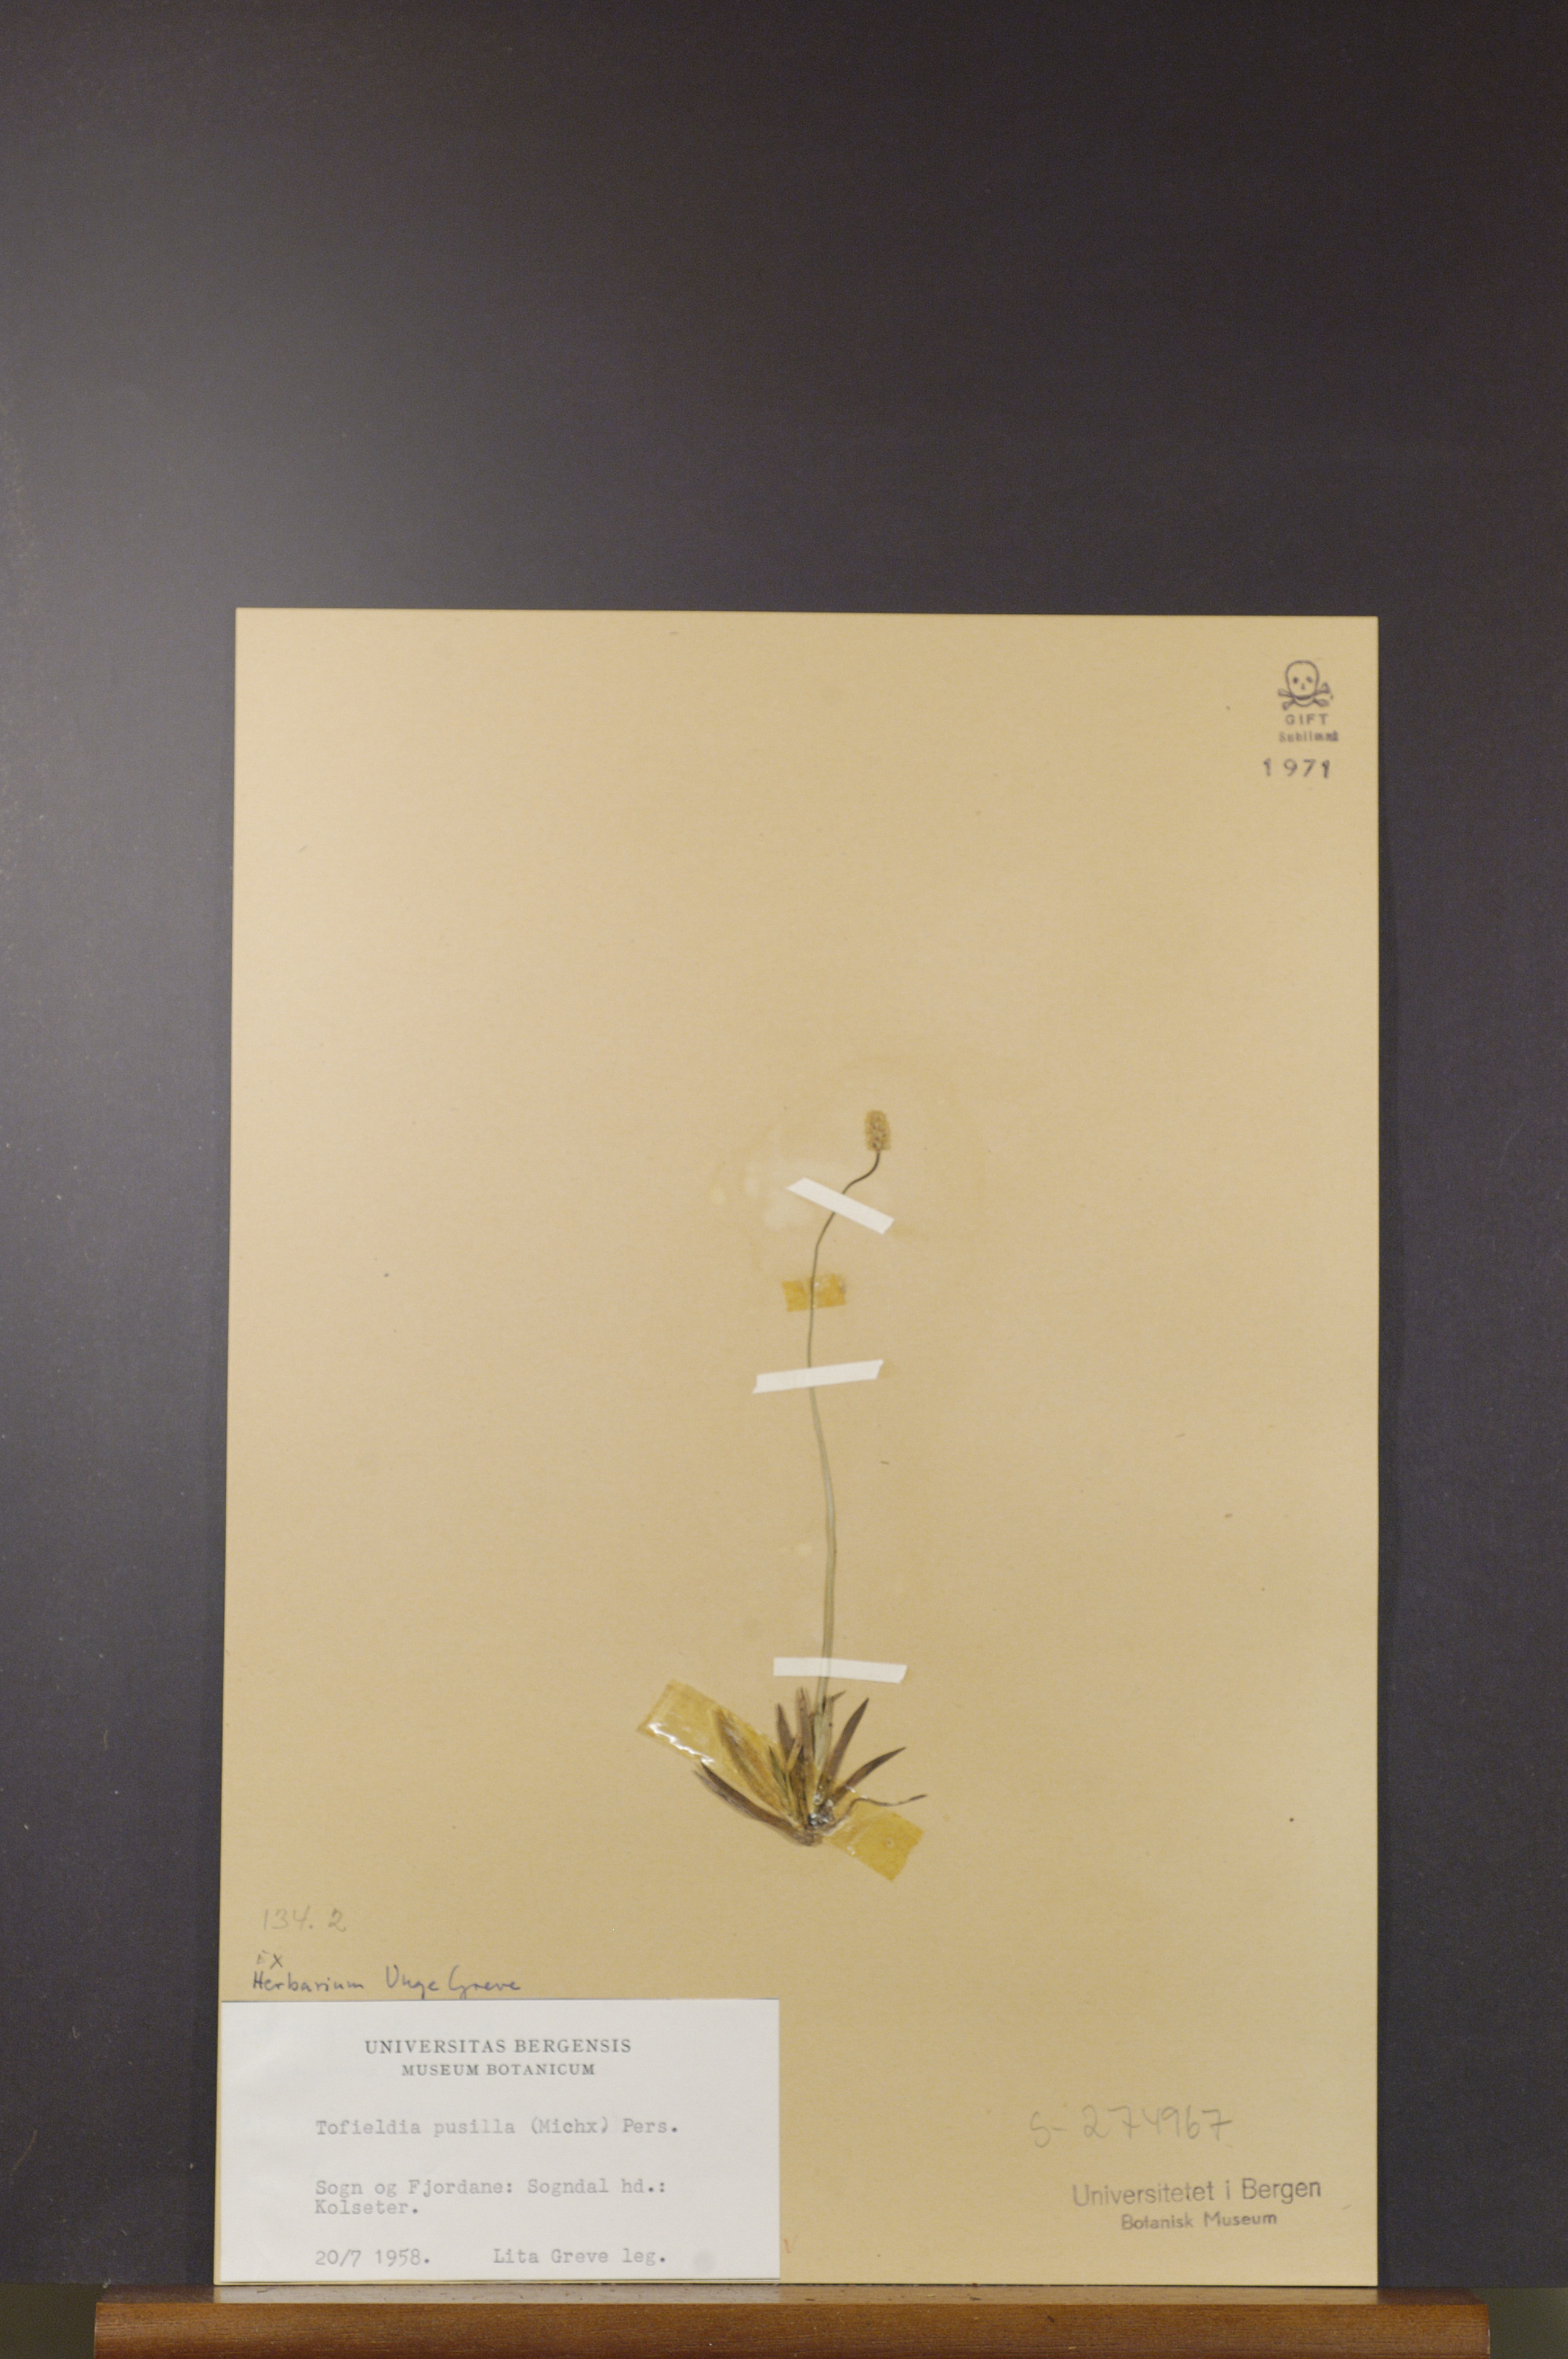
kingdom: Plantae
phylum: Tracheophyta
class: Liliopsida
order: Alismatales
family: Tofieldiaceae
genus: Tofieldia
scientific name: Tofieldia pusilla
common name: Scottish false asphodel
